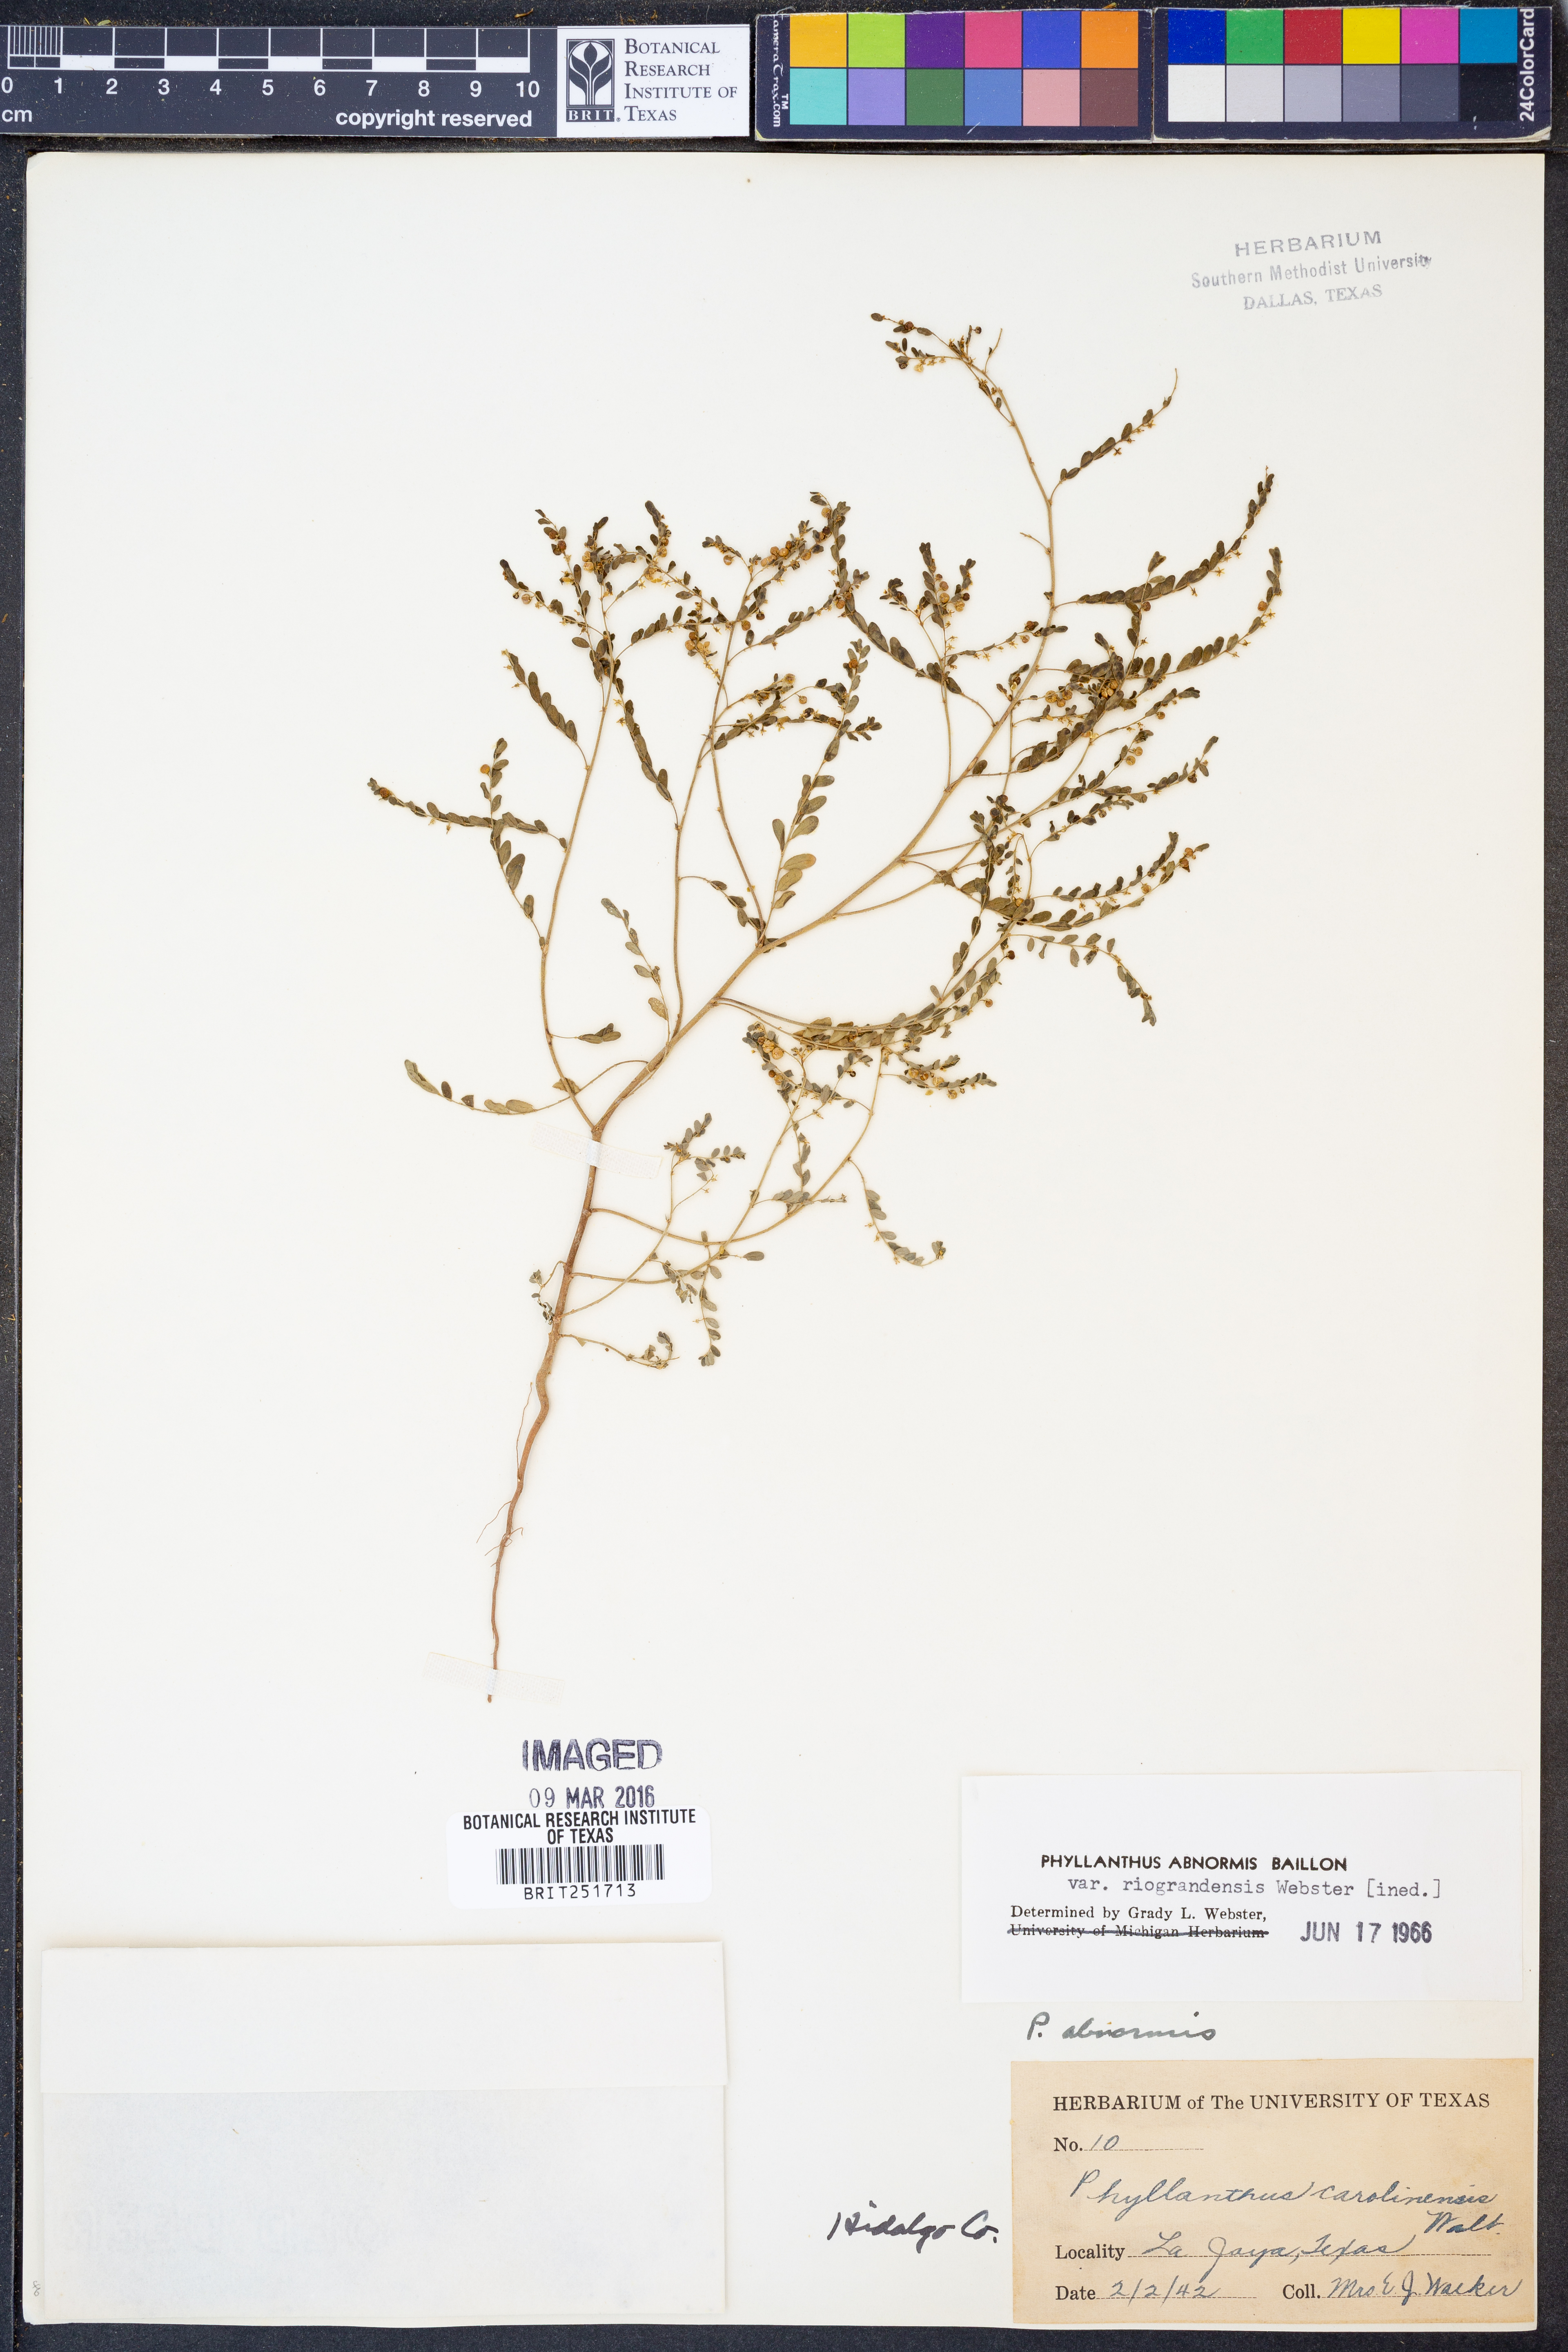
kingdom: Plantae
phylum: Tracheophyta
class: Magnoliopsida
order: Malpighiales
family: Phyllanthaceae
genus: Phyllanthus
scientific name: Phyllanthus abnormis
